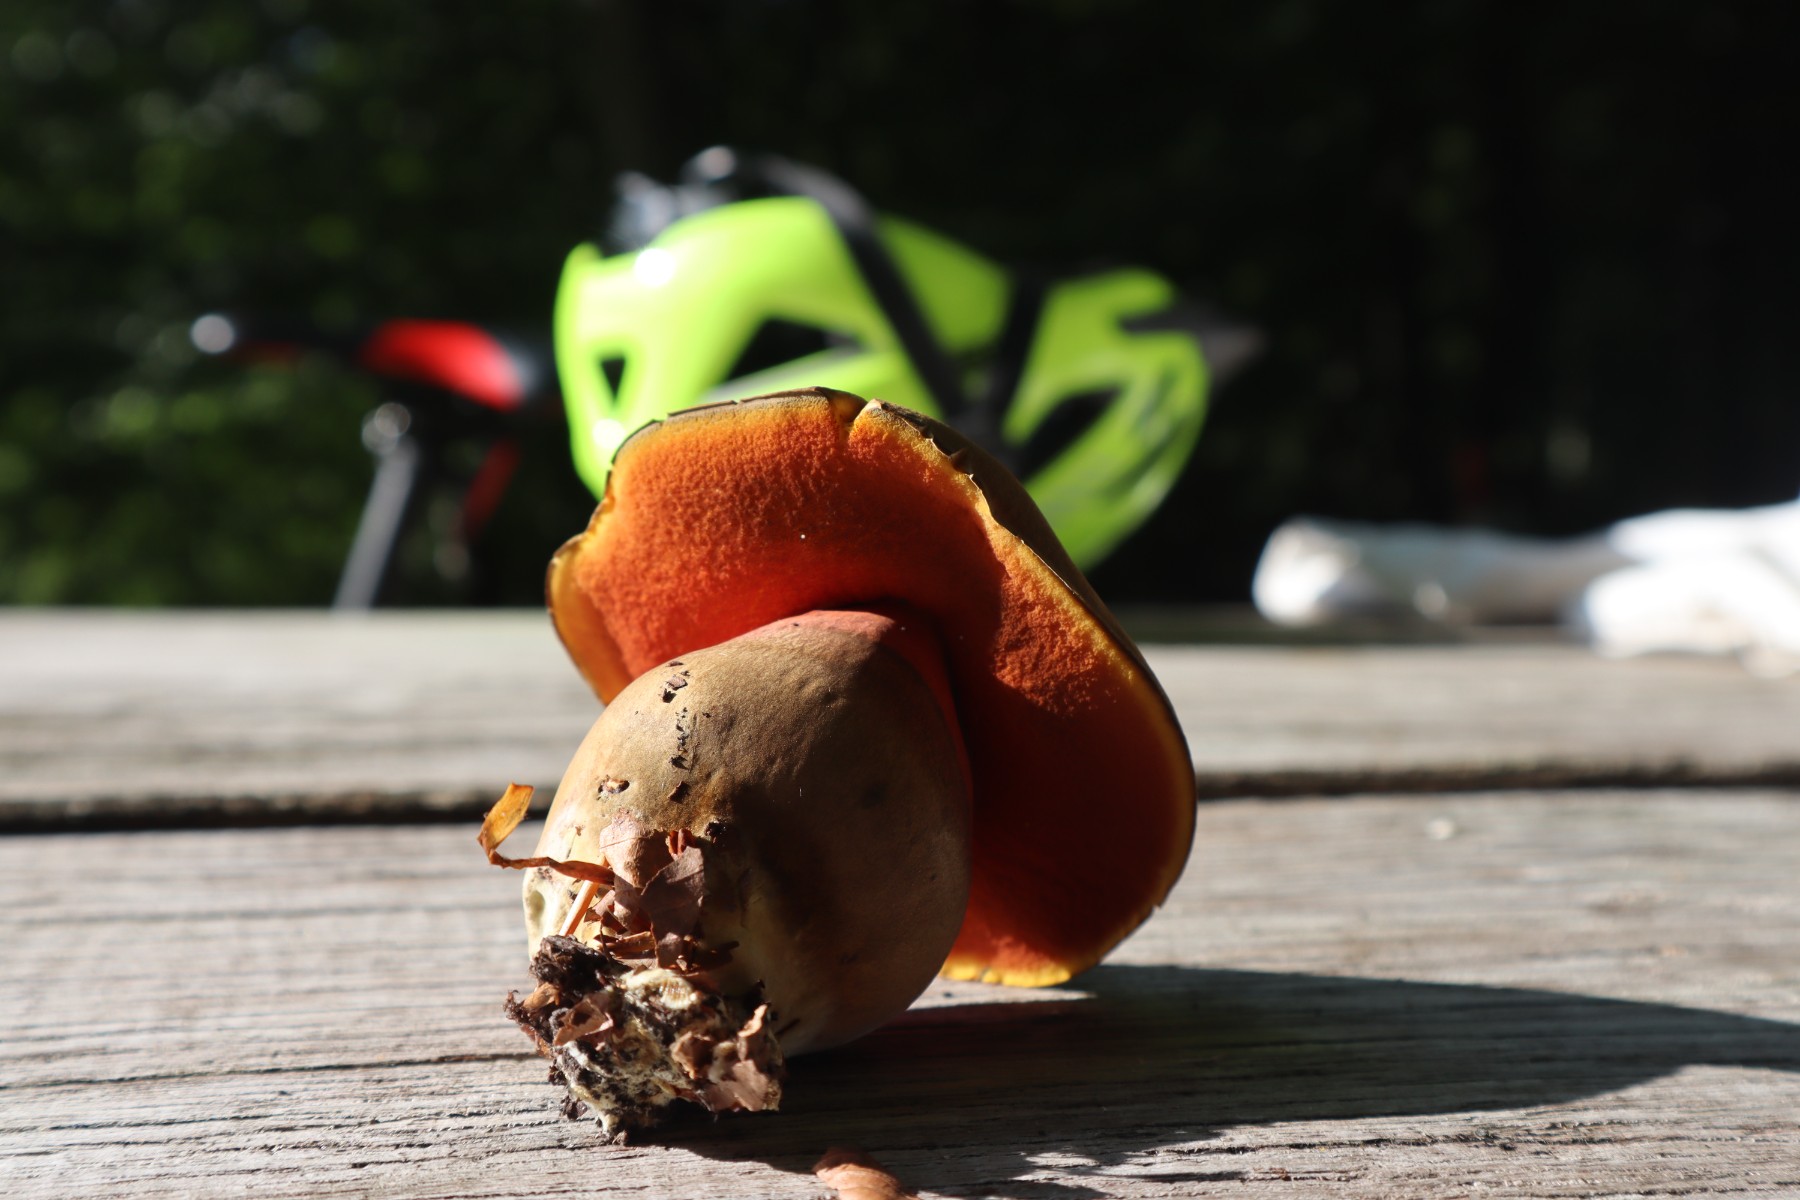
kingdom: Fungi
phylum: Basidiomycota
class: Agaricomycetes
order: Boletales
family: Boletaceae
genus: Neoboletus
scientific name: Neoboletus erythropus
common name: punktstokket indigorørhat
